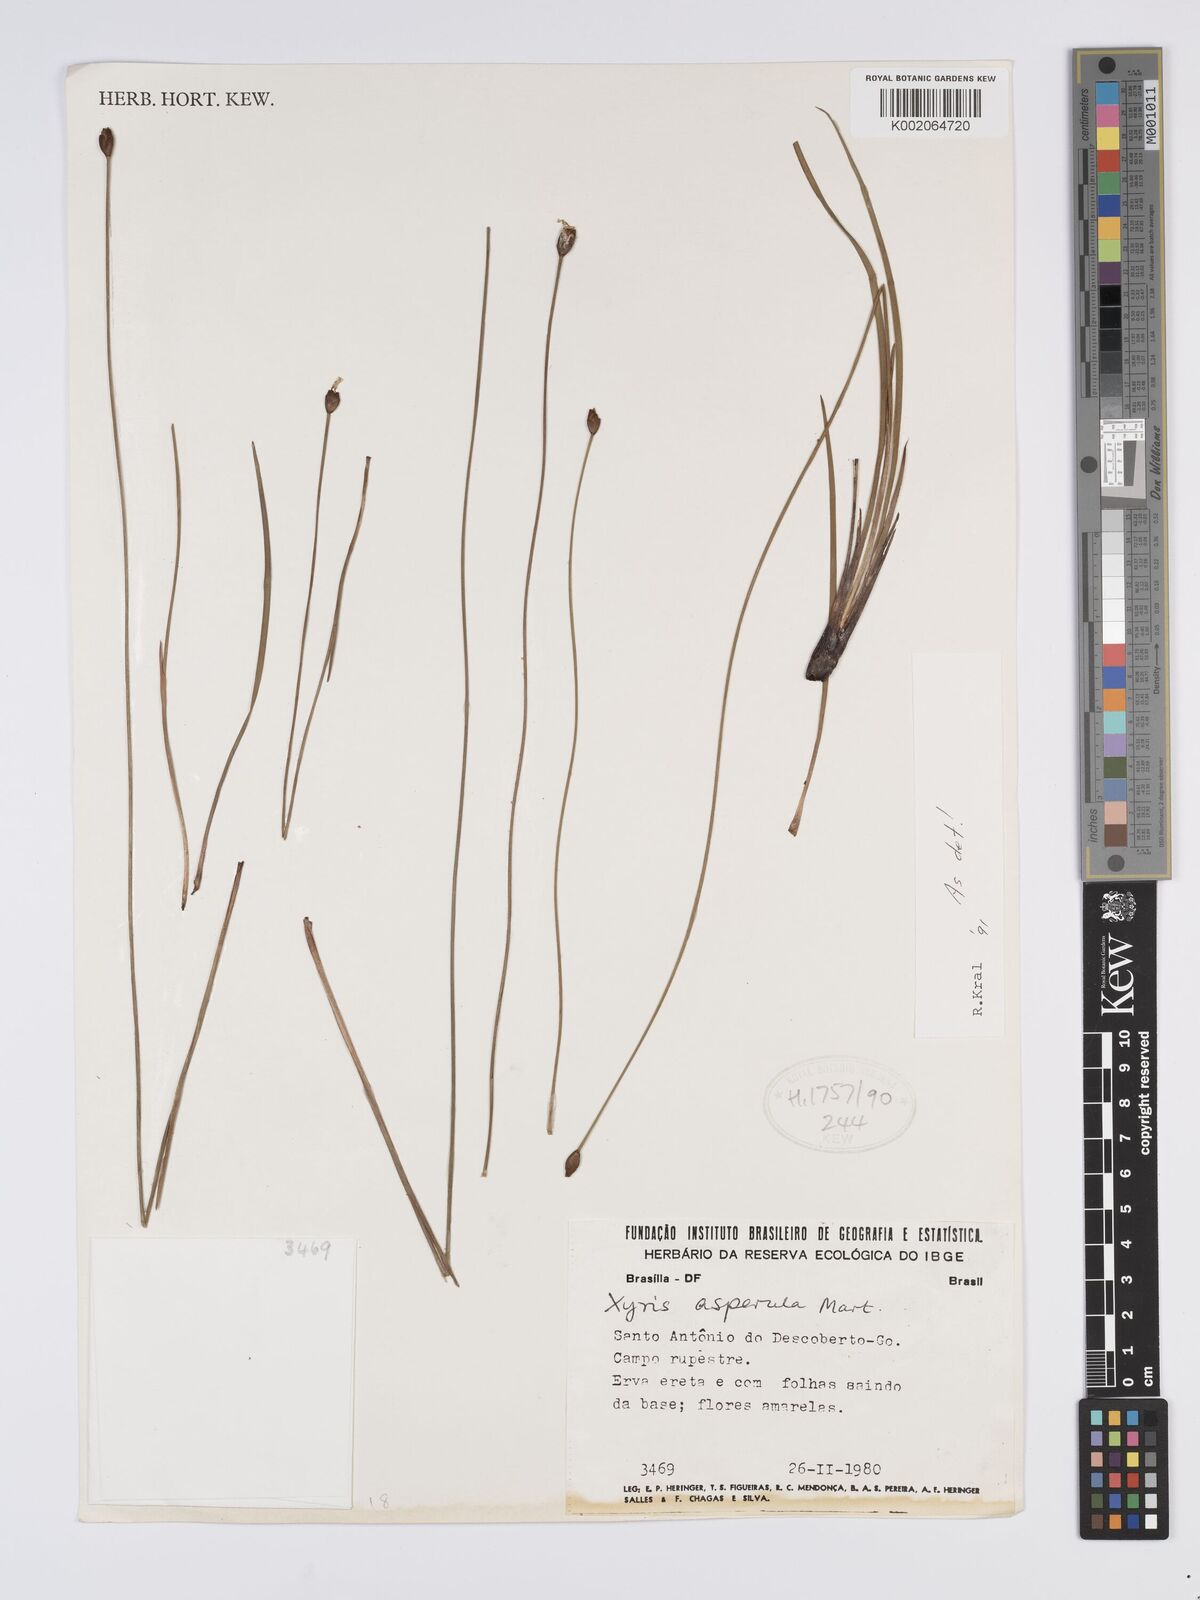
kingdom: Plantae
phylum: Tracheophyta
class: Liliopsida
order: Poales
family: Xyridaceae
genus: Xyris
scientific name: Xyris asperula
